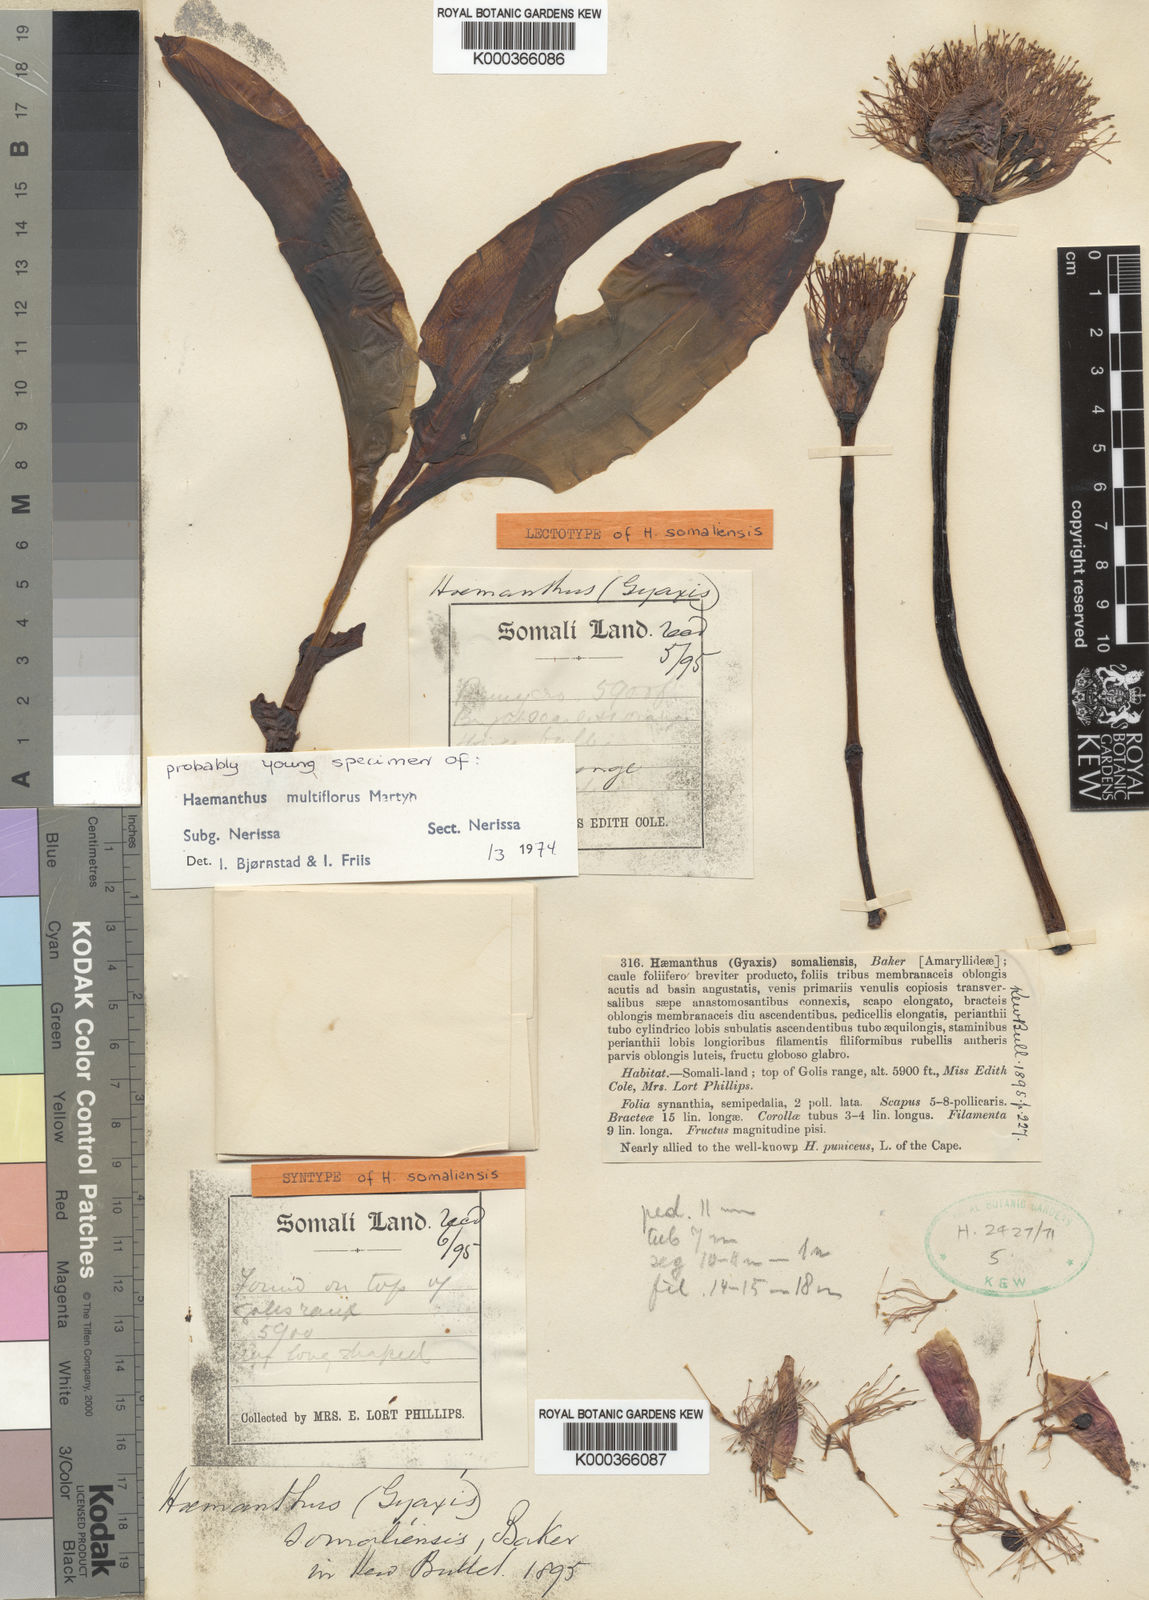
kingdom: Plantae
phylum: Tracheophyta
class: Liliopsida
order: Asparagales
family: Amaryllidaceae
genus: Scadoxus
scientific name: Scadoxus multiflorus
